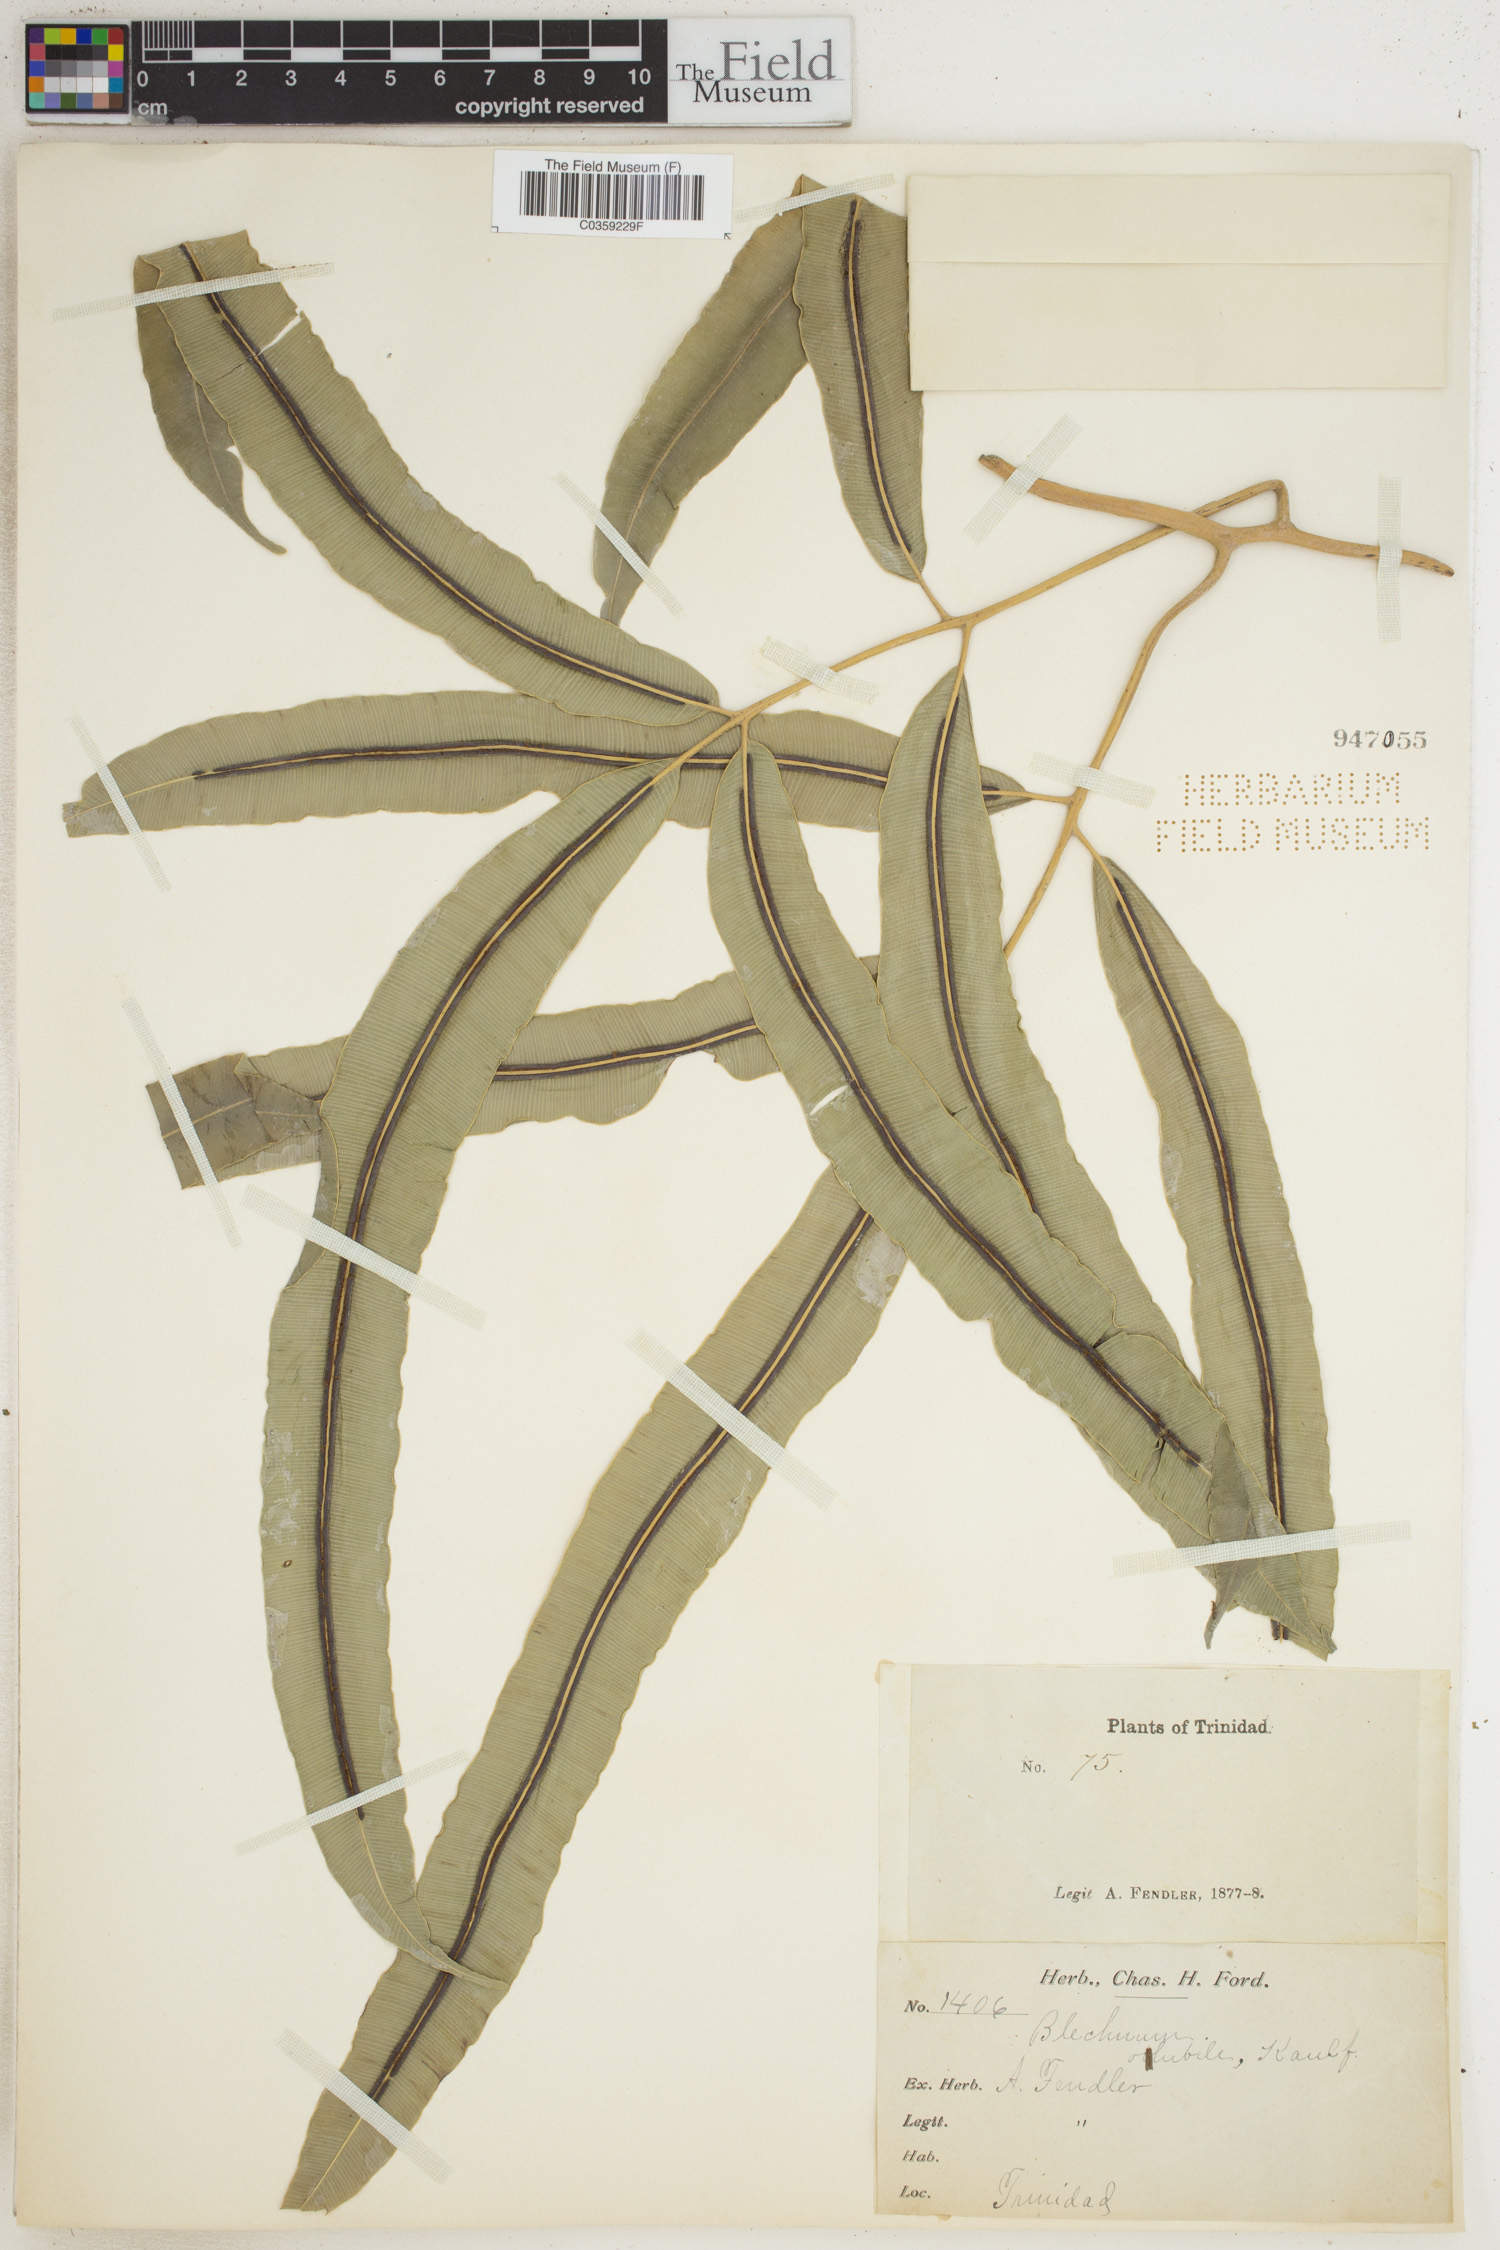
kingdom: Plantae
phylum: Tracheophyta
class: Polypodiopsida
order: Polypodiales
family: Blechnaceae
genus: Salpichlaena
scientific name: Salpichlaena volubilis
